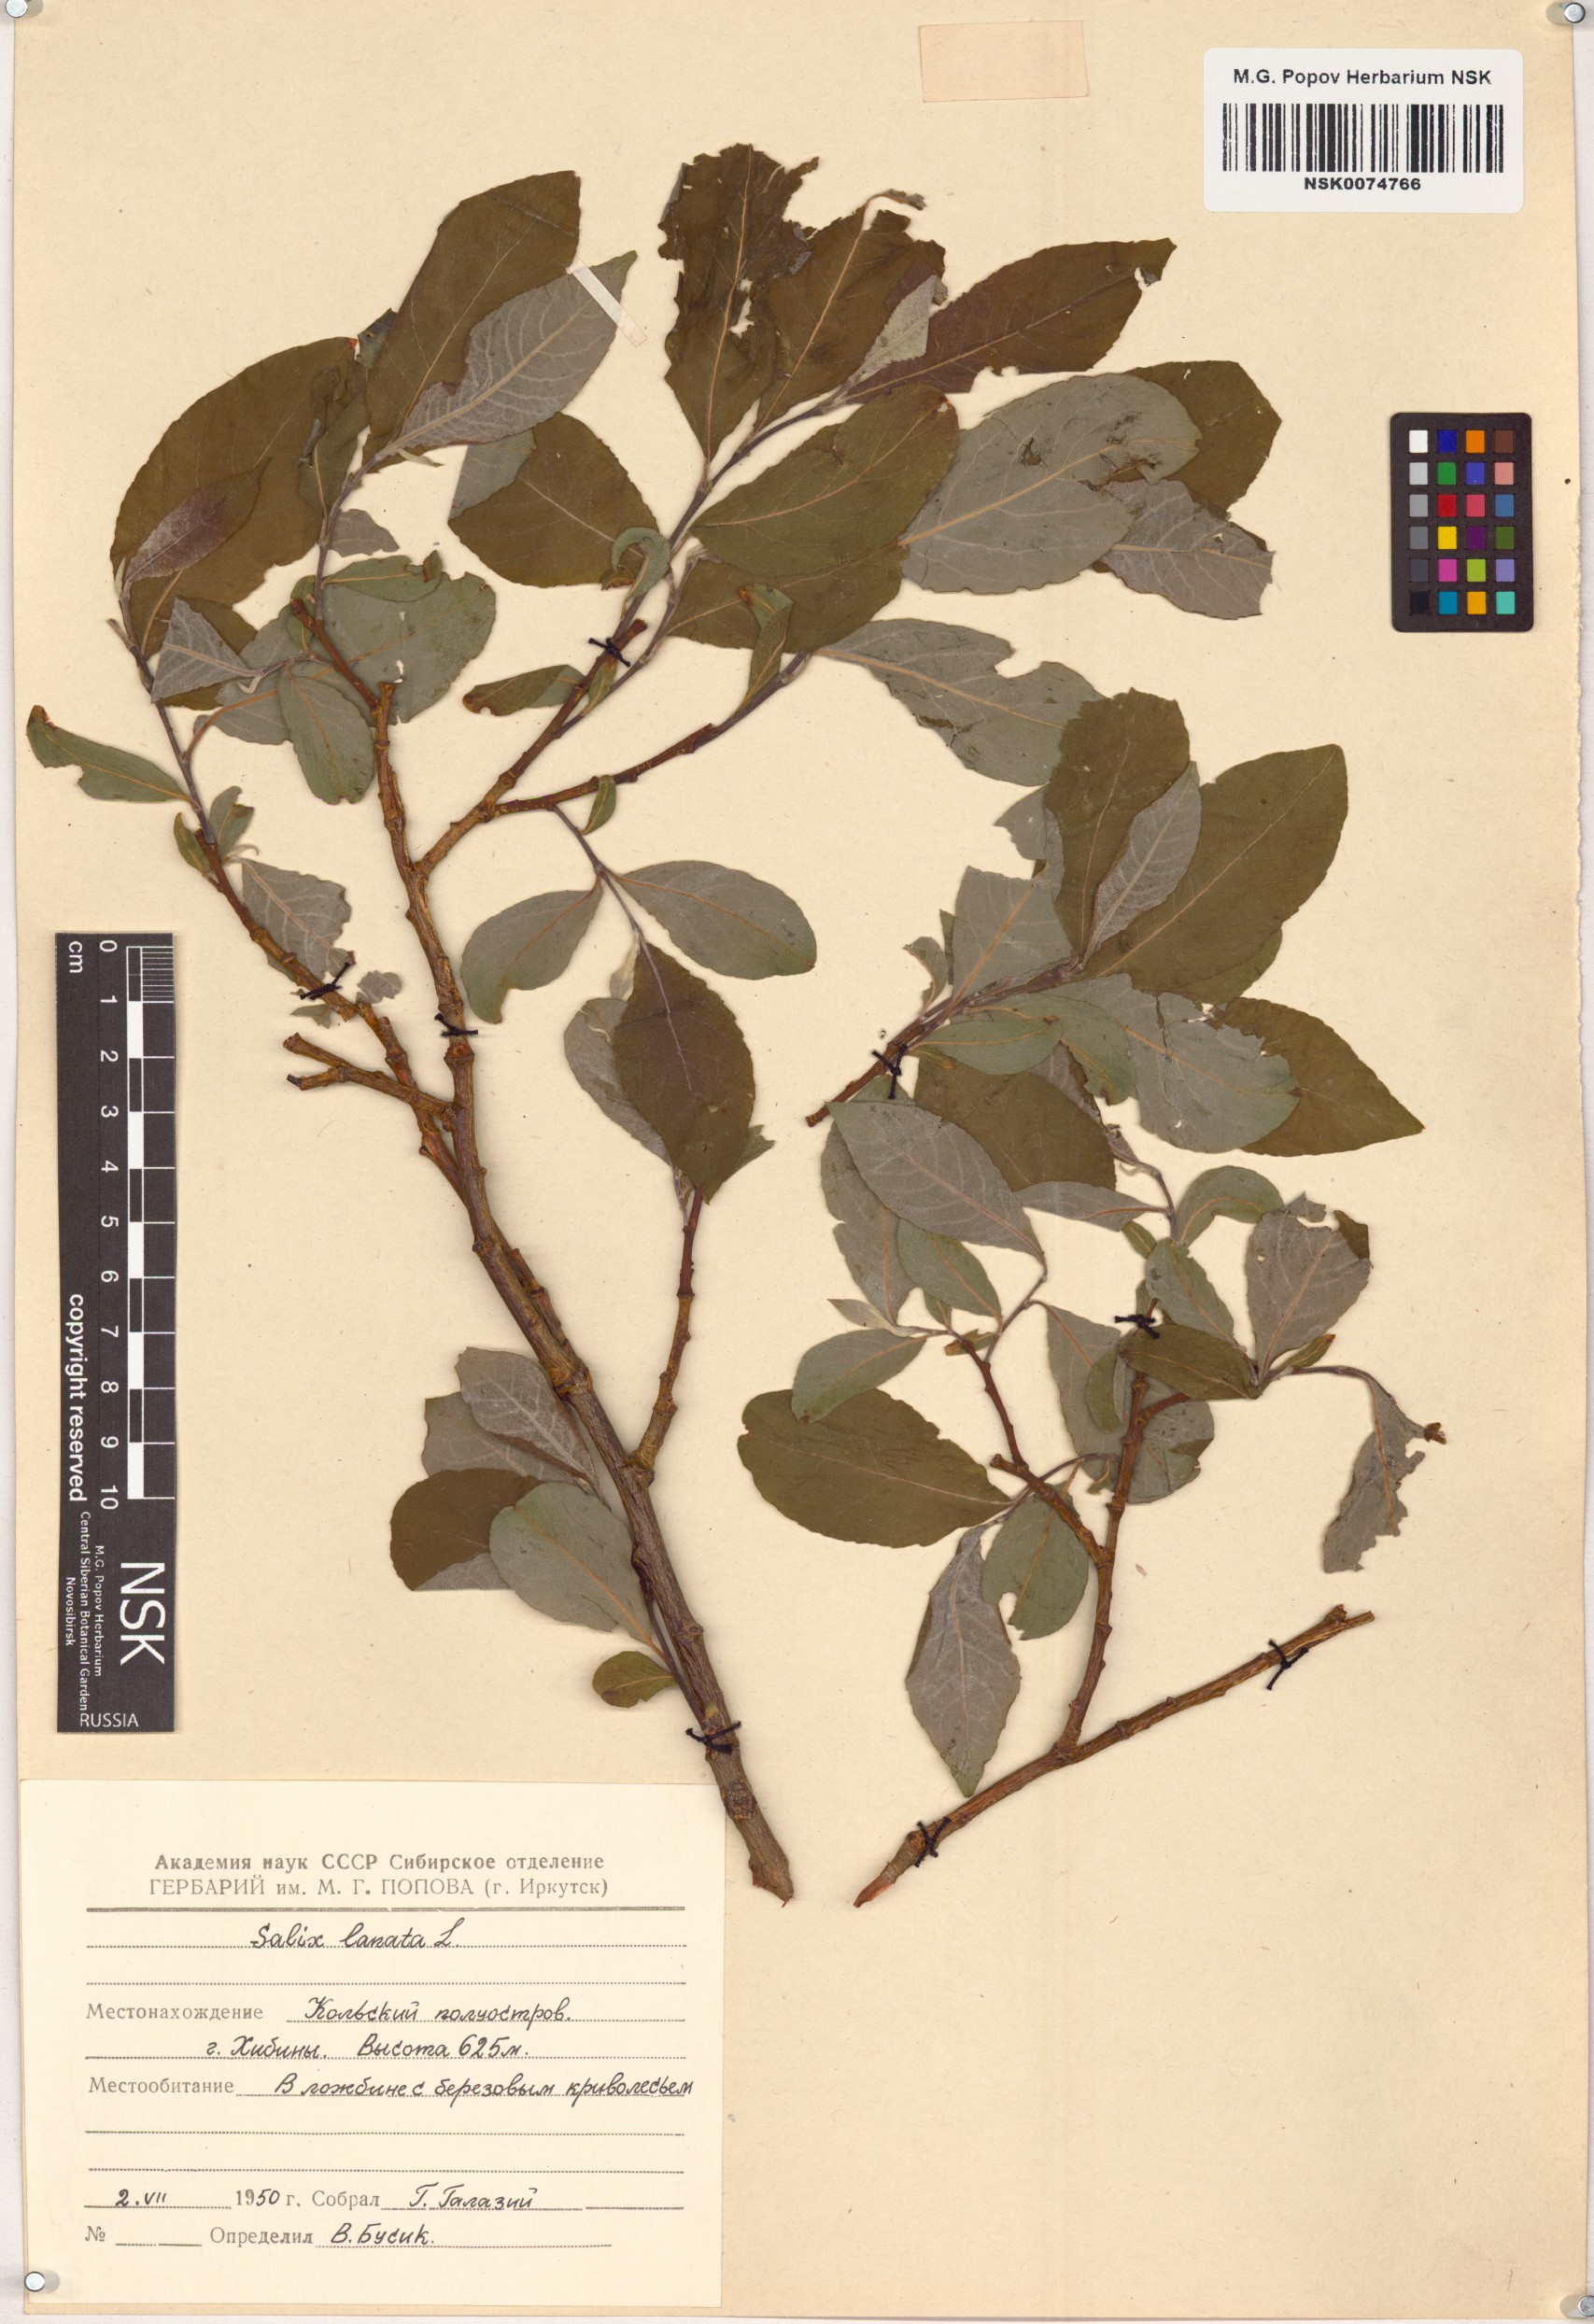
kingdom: Plantae
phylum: Tracheophyta
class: Magnoliopsida
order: Malpighiales
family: Salicaceae
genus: Salix
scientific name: Salix lanata
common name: Woolly willow
